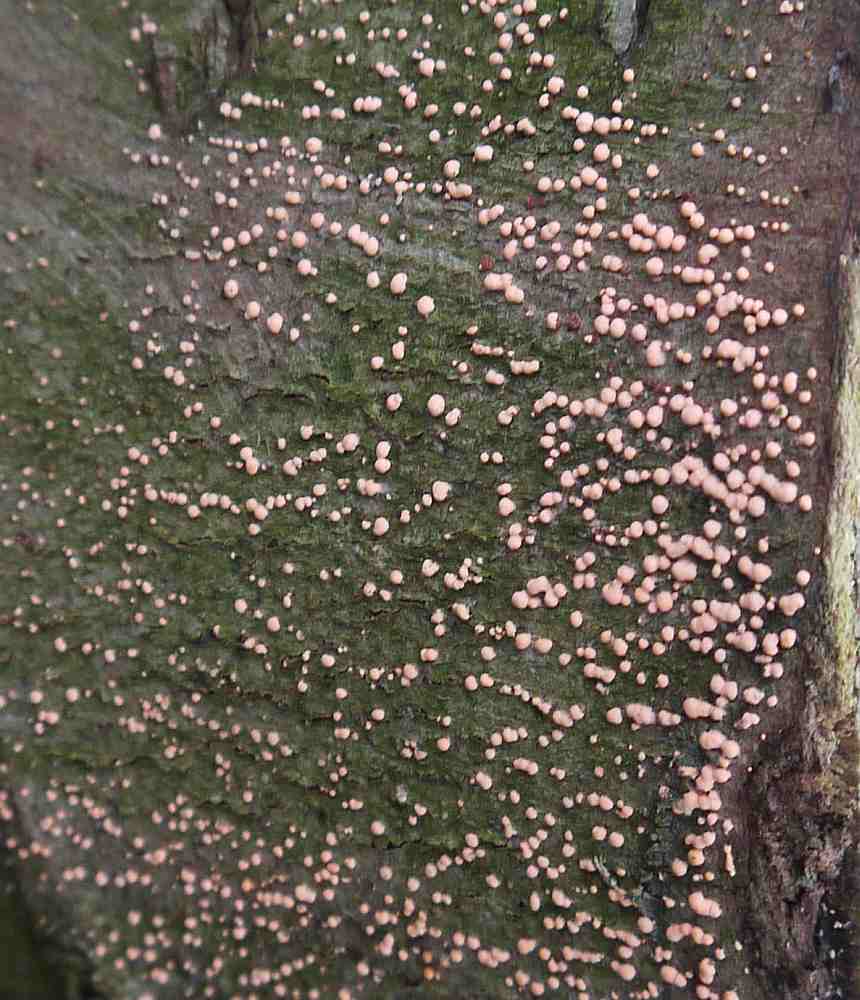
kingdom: Fungi
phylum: Ascomycota
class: Sordariomycetes
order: Hypocreales
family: Nectriaceae
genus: Nectria
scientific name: Nectria cinnabarina
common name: almindelig cinnobersvamp
